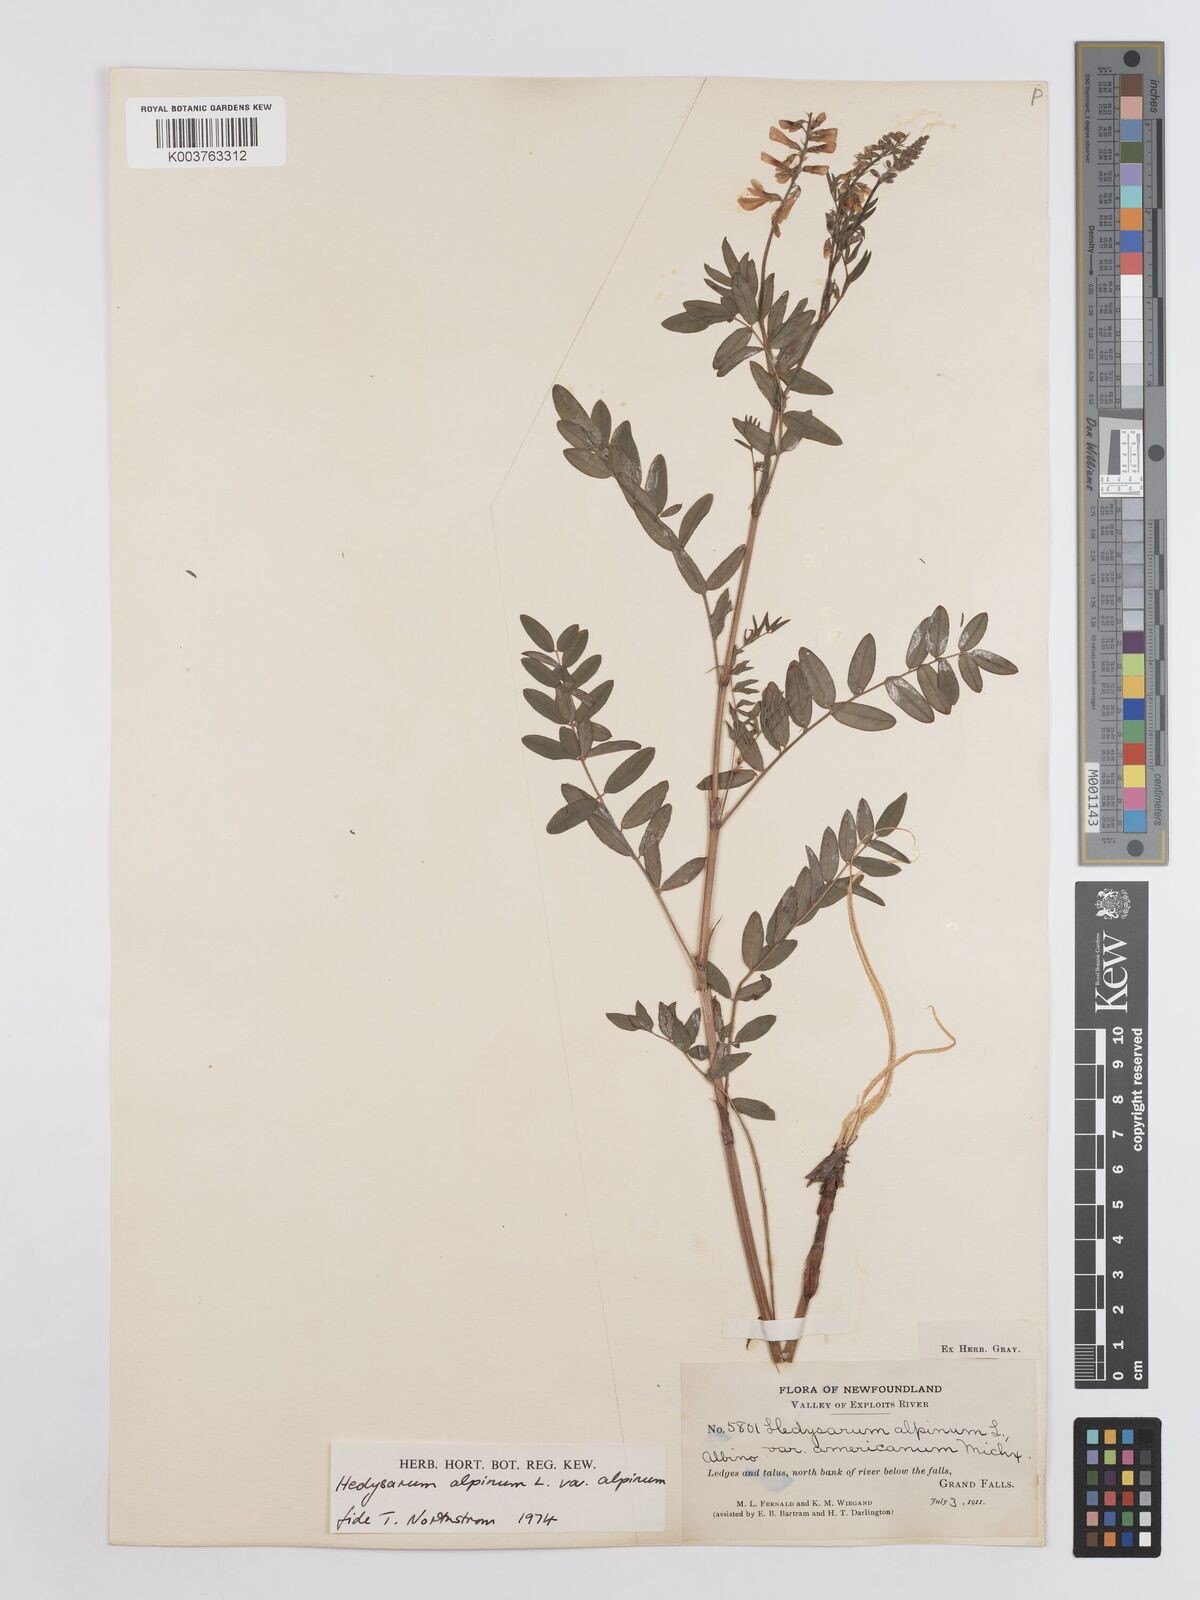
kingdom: Plantae
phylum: Tracheophyta
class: Magnoliopsida
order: Fabales
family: Fabaceae
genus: Hedysarum
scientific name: Hedysarum alpinum
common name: Alpine sweet-vetch
